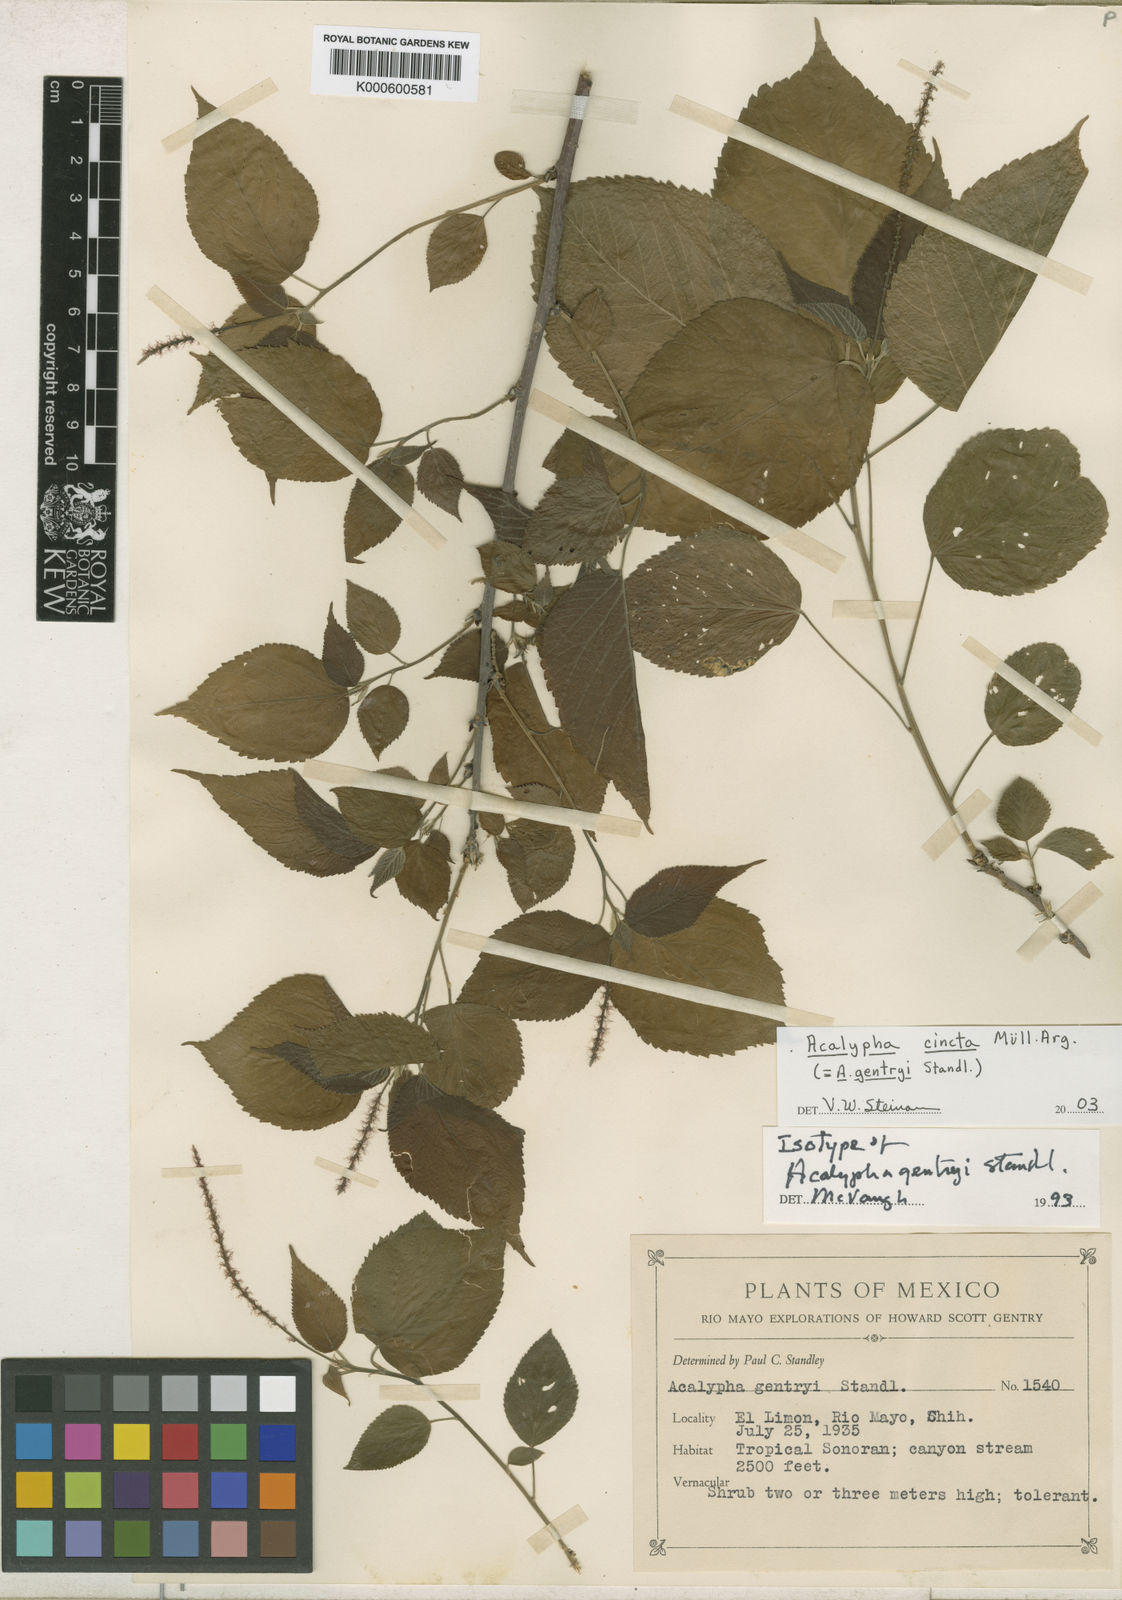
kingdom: Plantae
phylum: Tracheophyta
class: Magnoliopsida
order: Malpighiales
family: Euphorbiaceae
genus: Acalypha
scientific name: Acalypha
